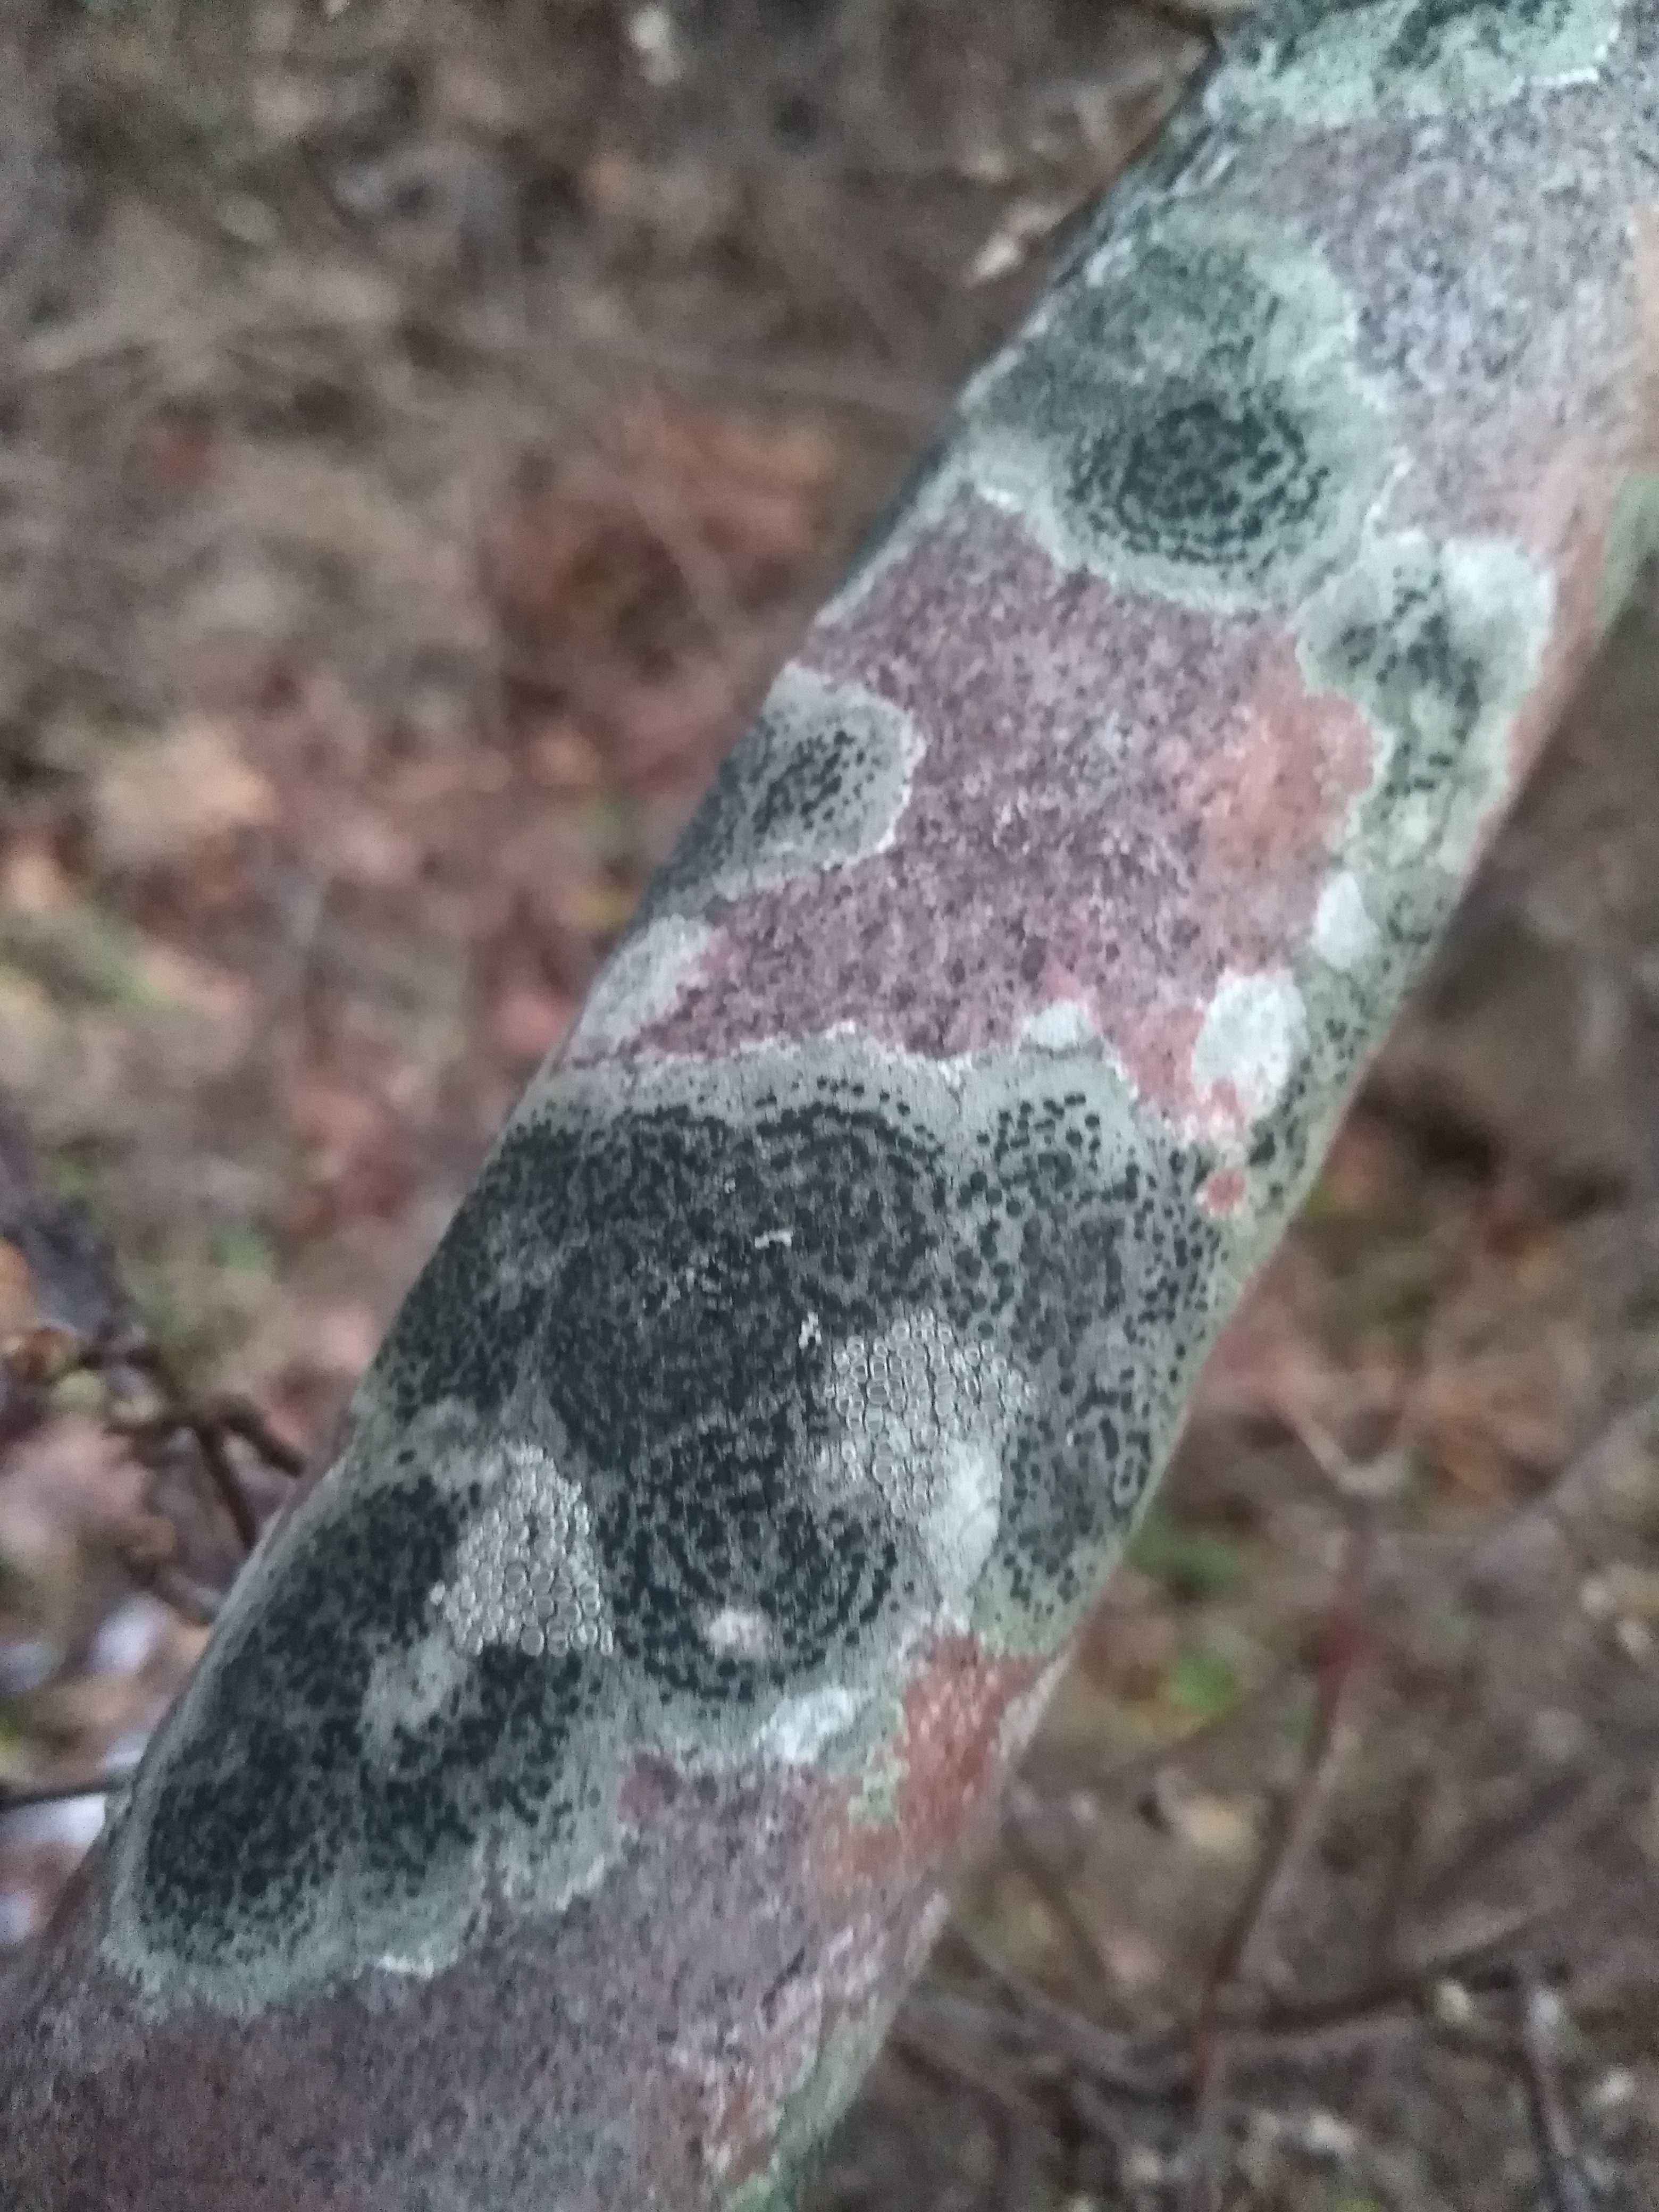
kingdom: Fungi
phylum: Ascomycota
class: Lecanoromycetes
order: Lecanorales
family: Lecanoraceae
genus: Lecidella
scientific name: Lecidella elaeochroma
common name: grågrøn skivelav
